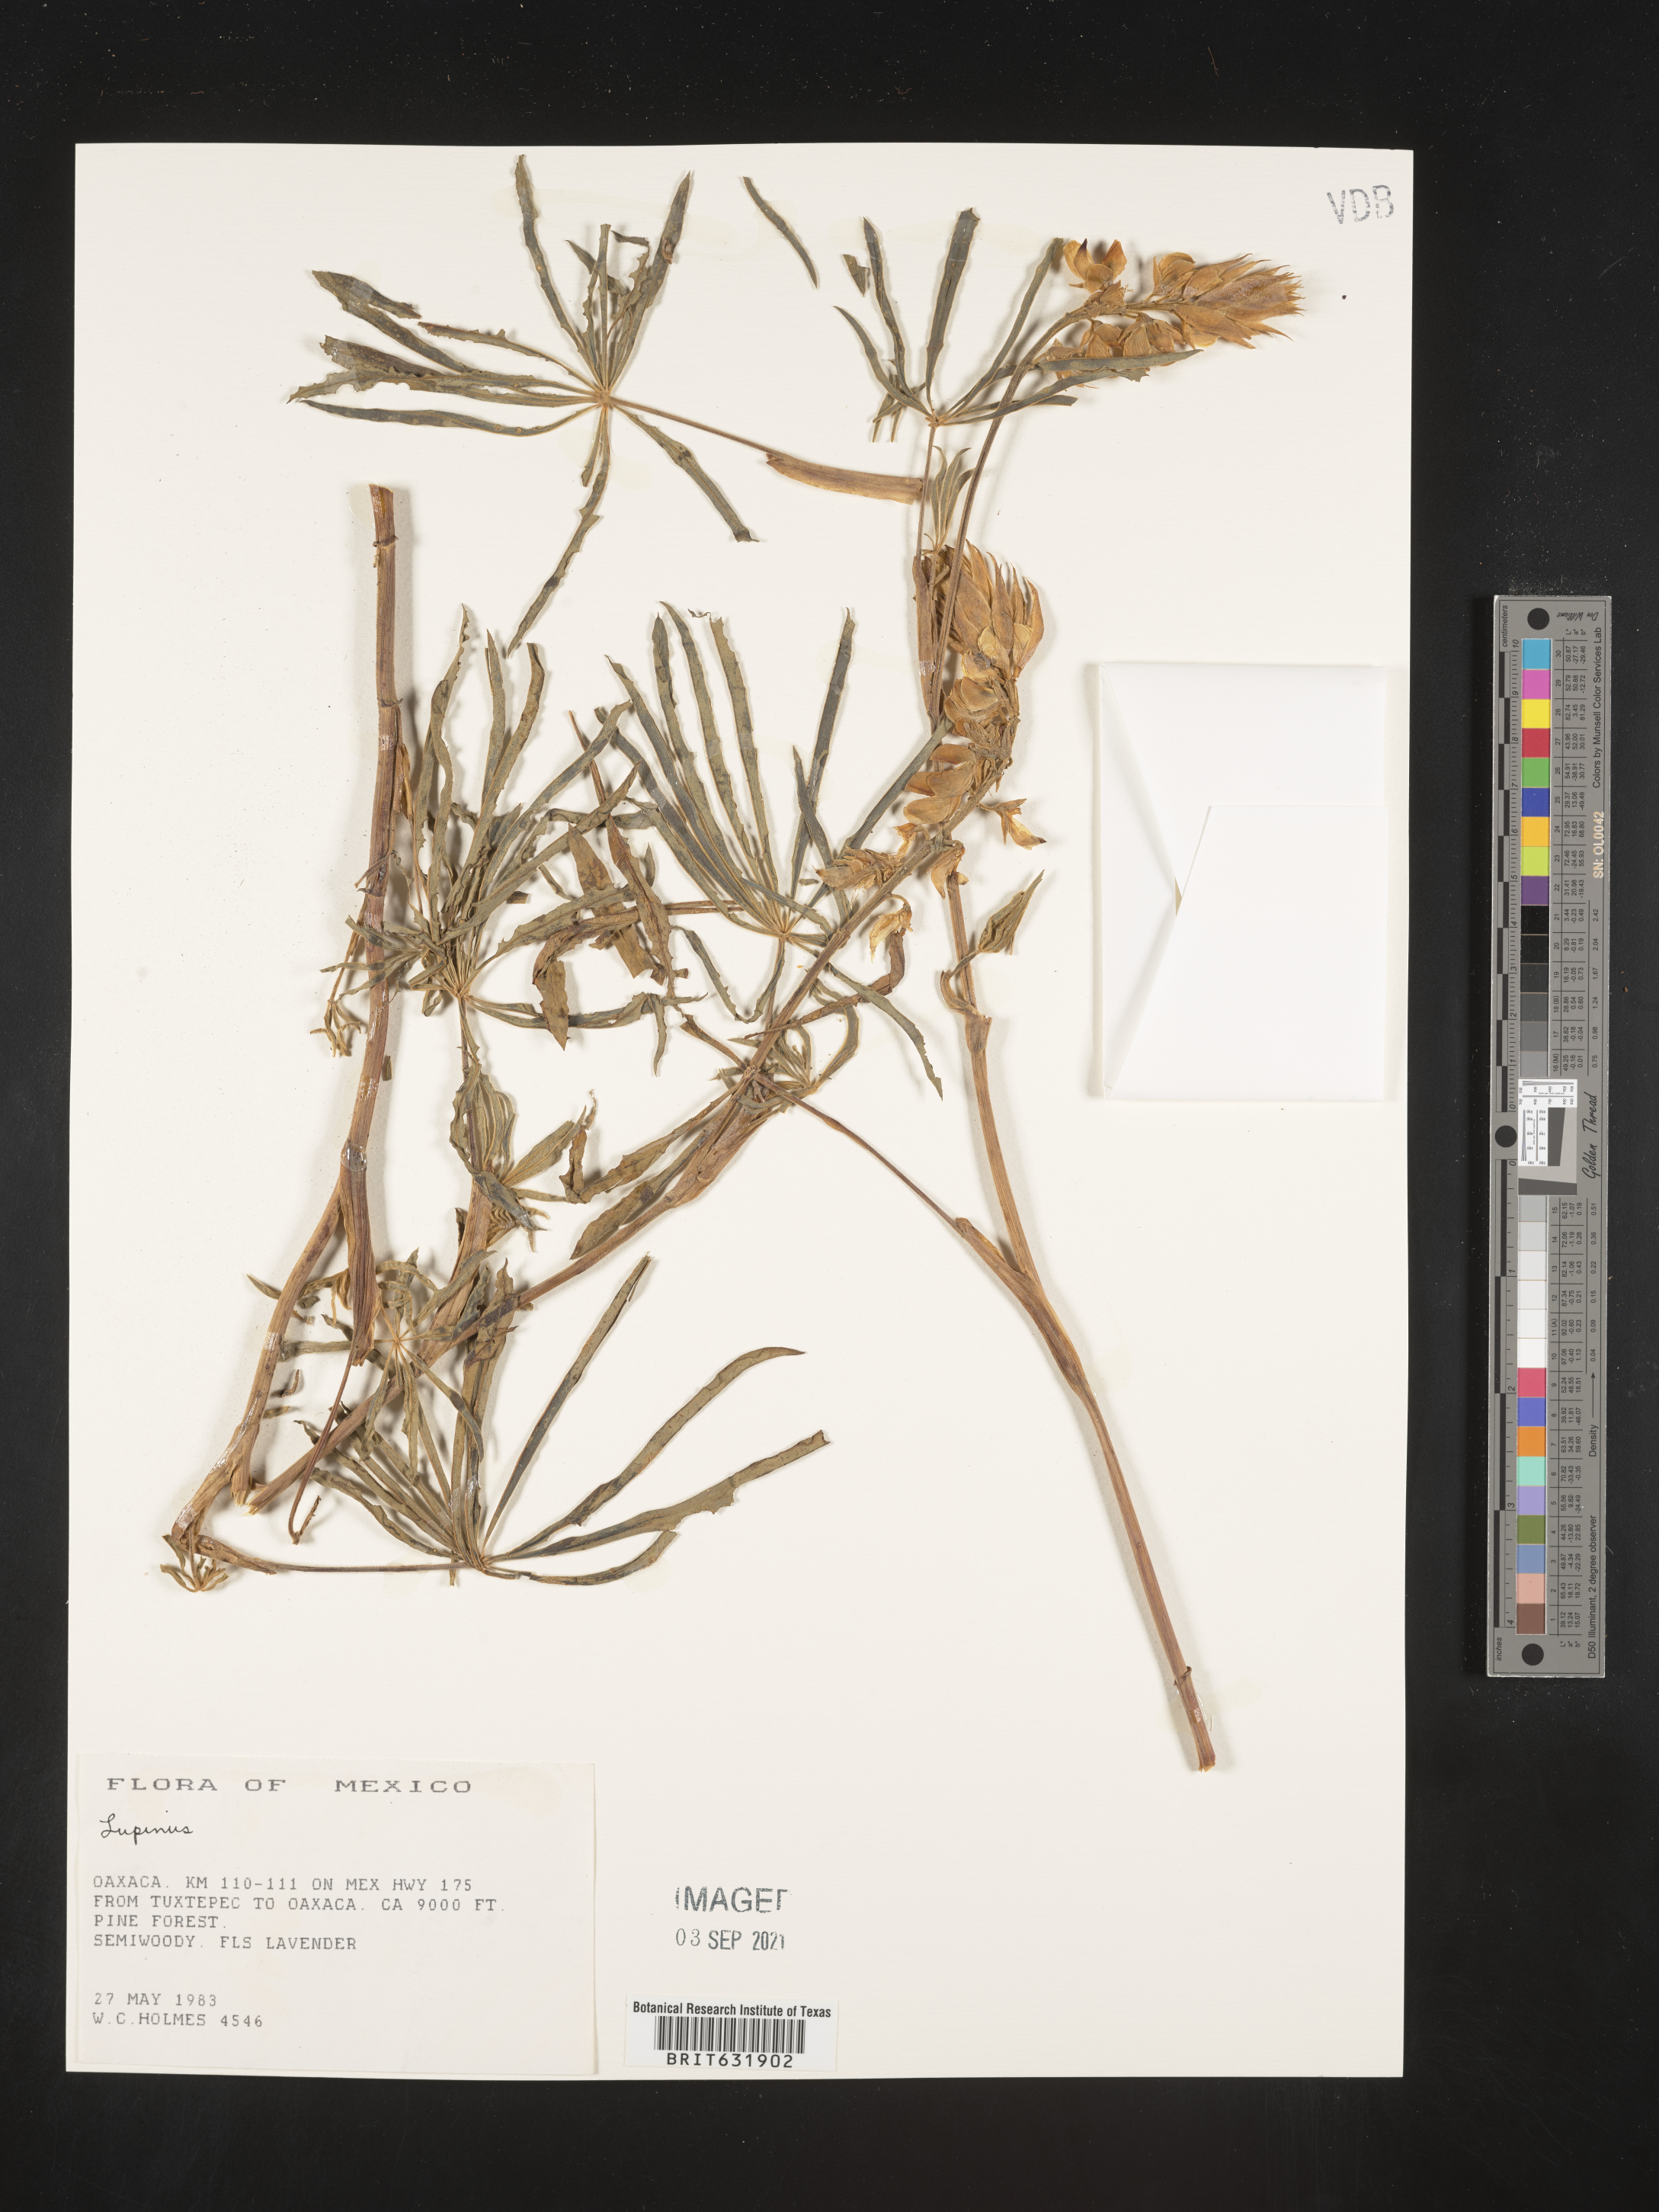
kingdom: Plantae
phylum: Tracheophyta
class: Magnoliopsida
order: Fabales
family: Fabaceae
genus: Lupinus
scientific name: Lupinus
